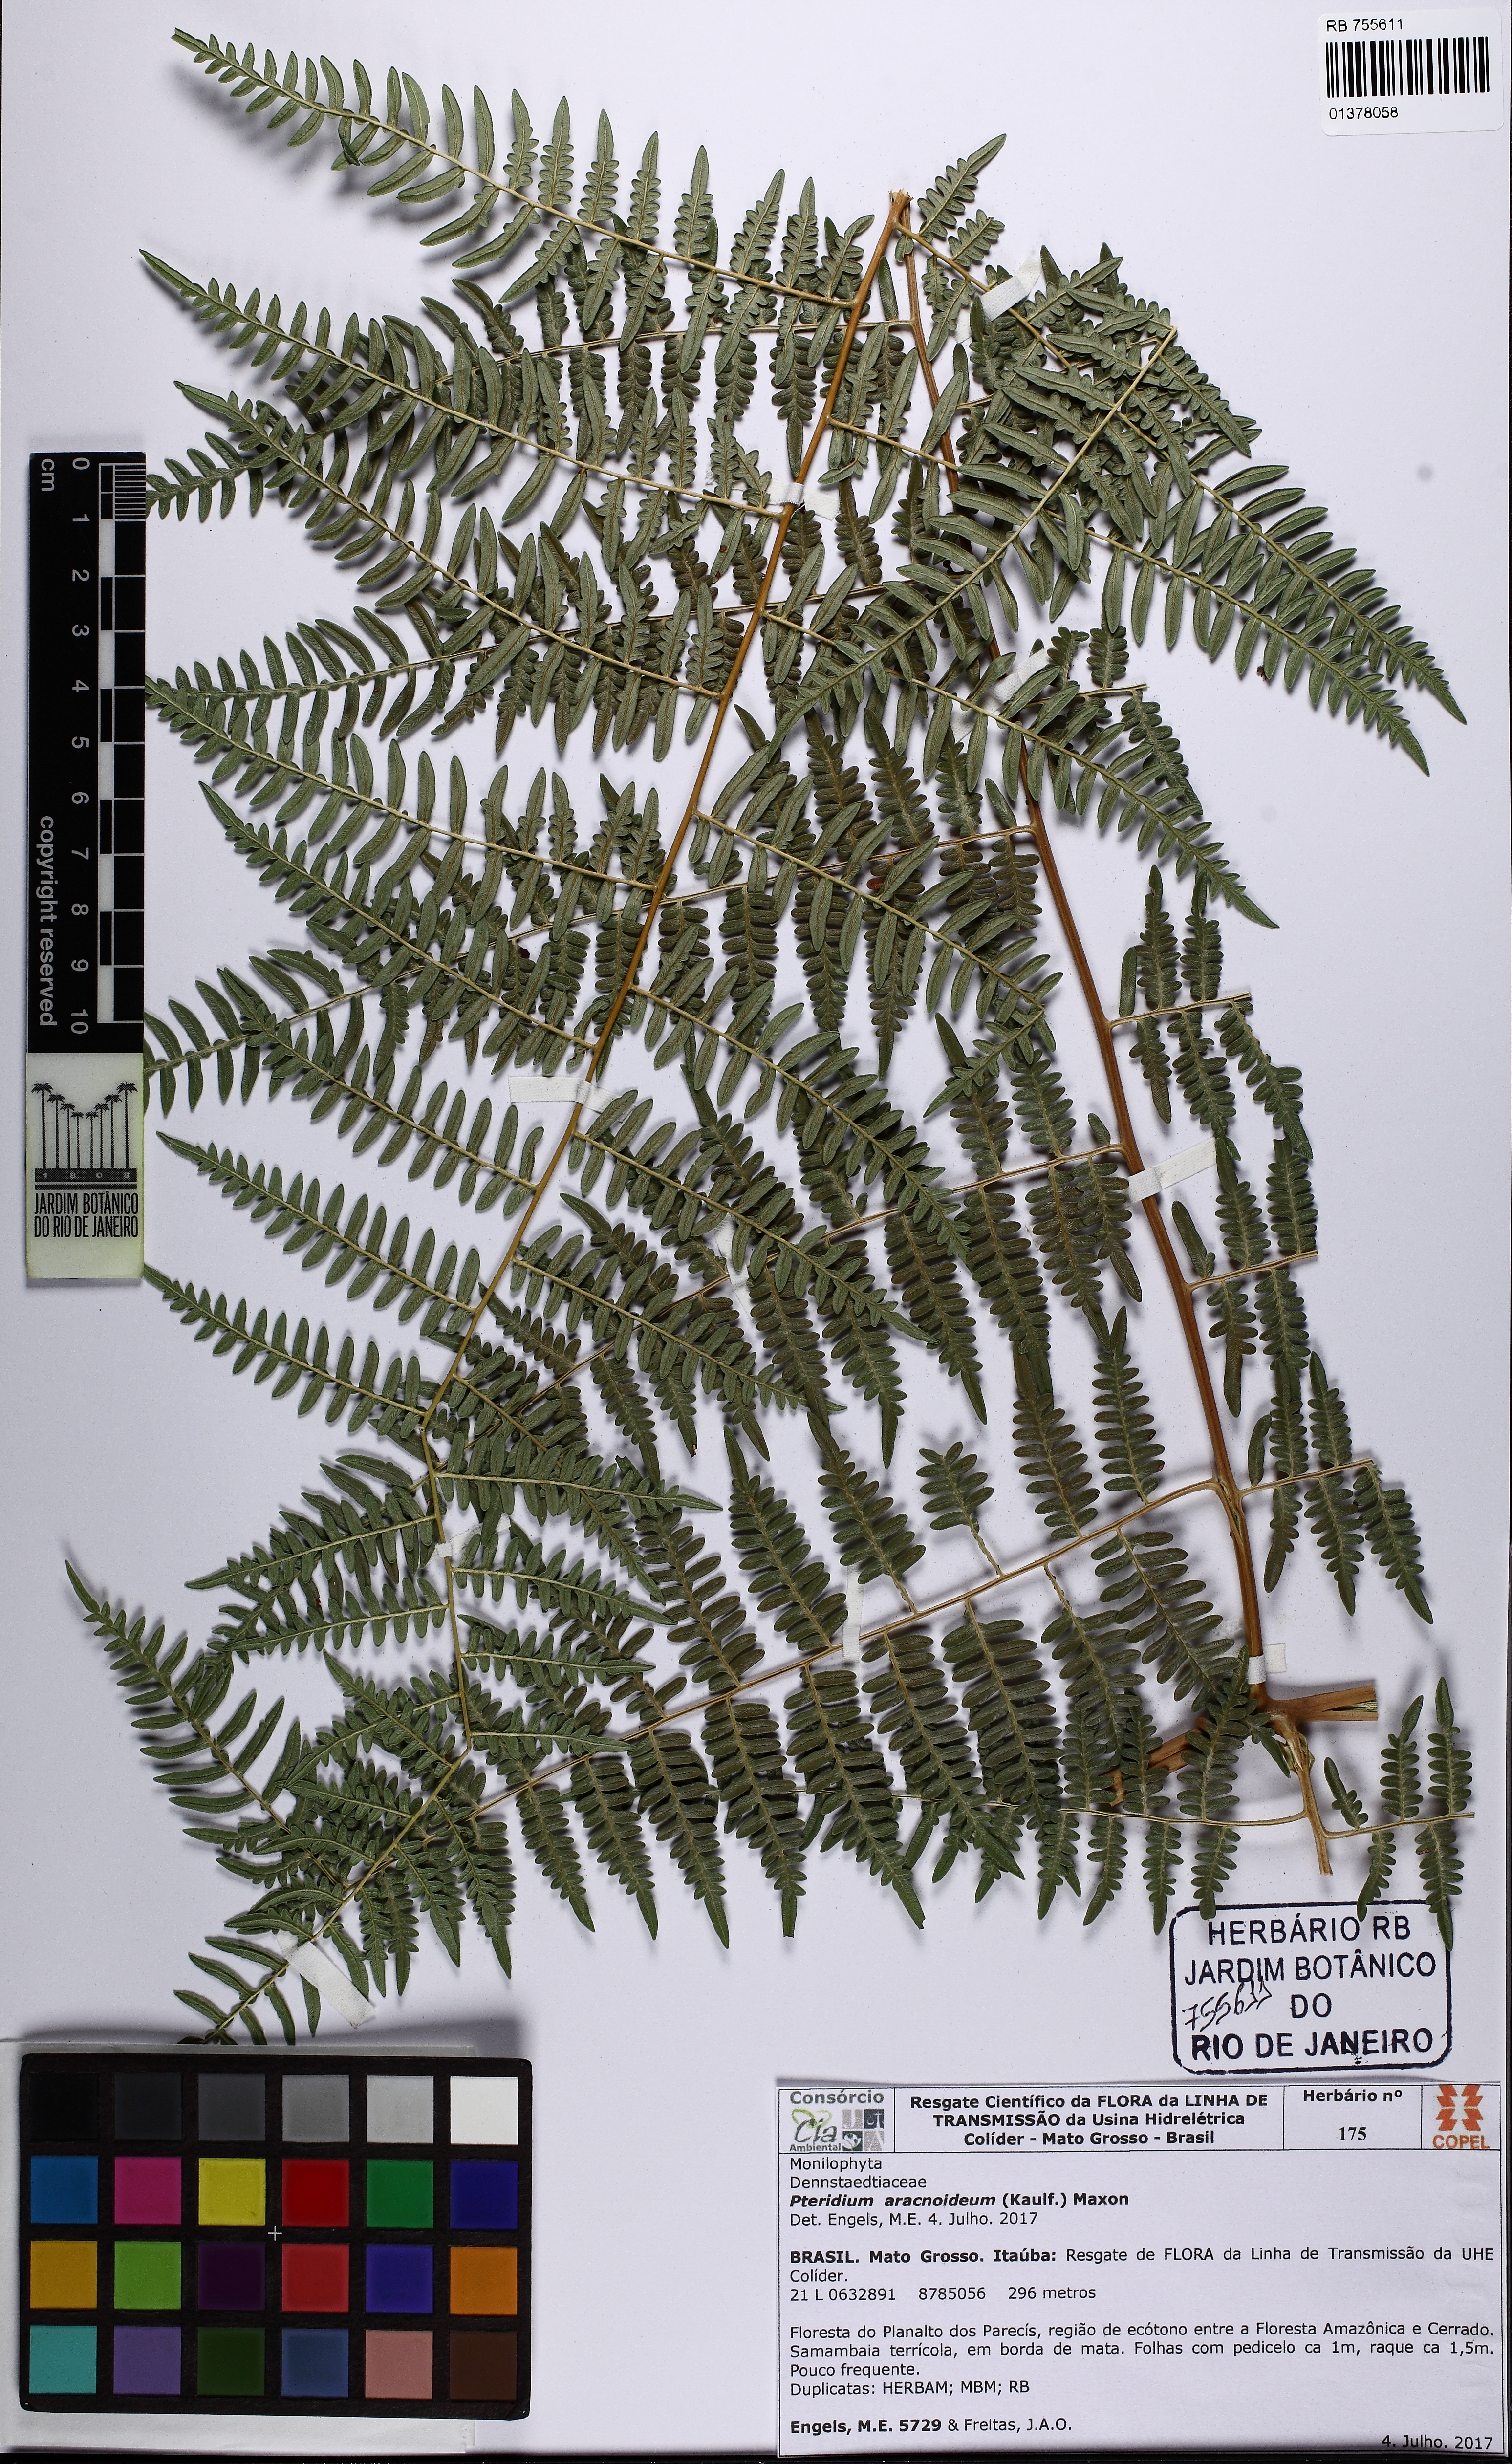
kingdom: Plantae
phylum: Tracheophyta
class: Polypodiopsida
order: Polypodiales
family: Dennstaedtiaceae
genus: Pteridium
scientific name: Pteridium esculentum
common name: Bracken fern
